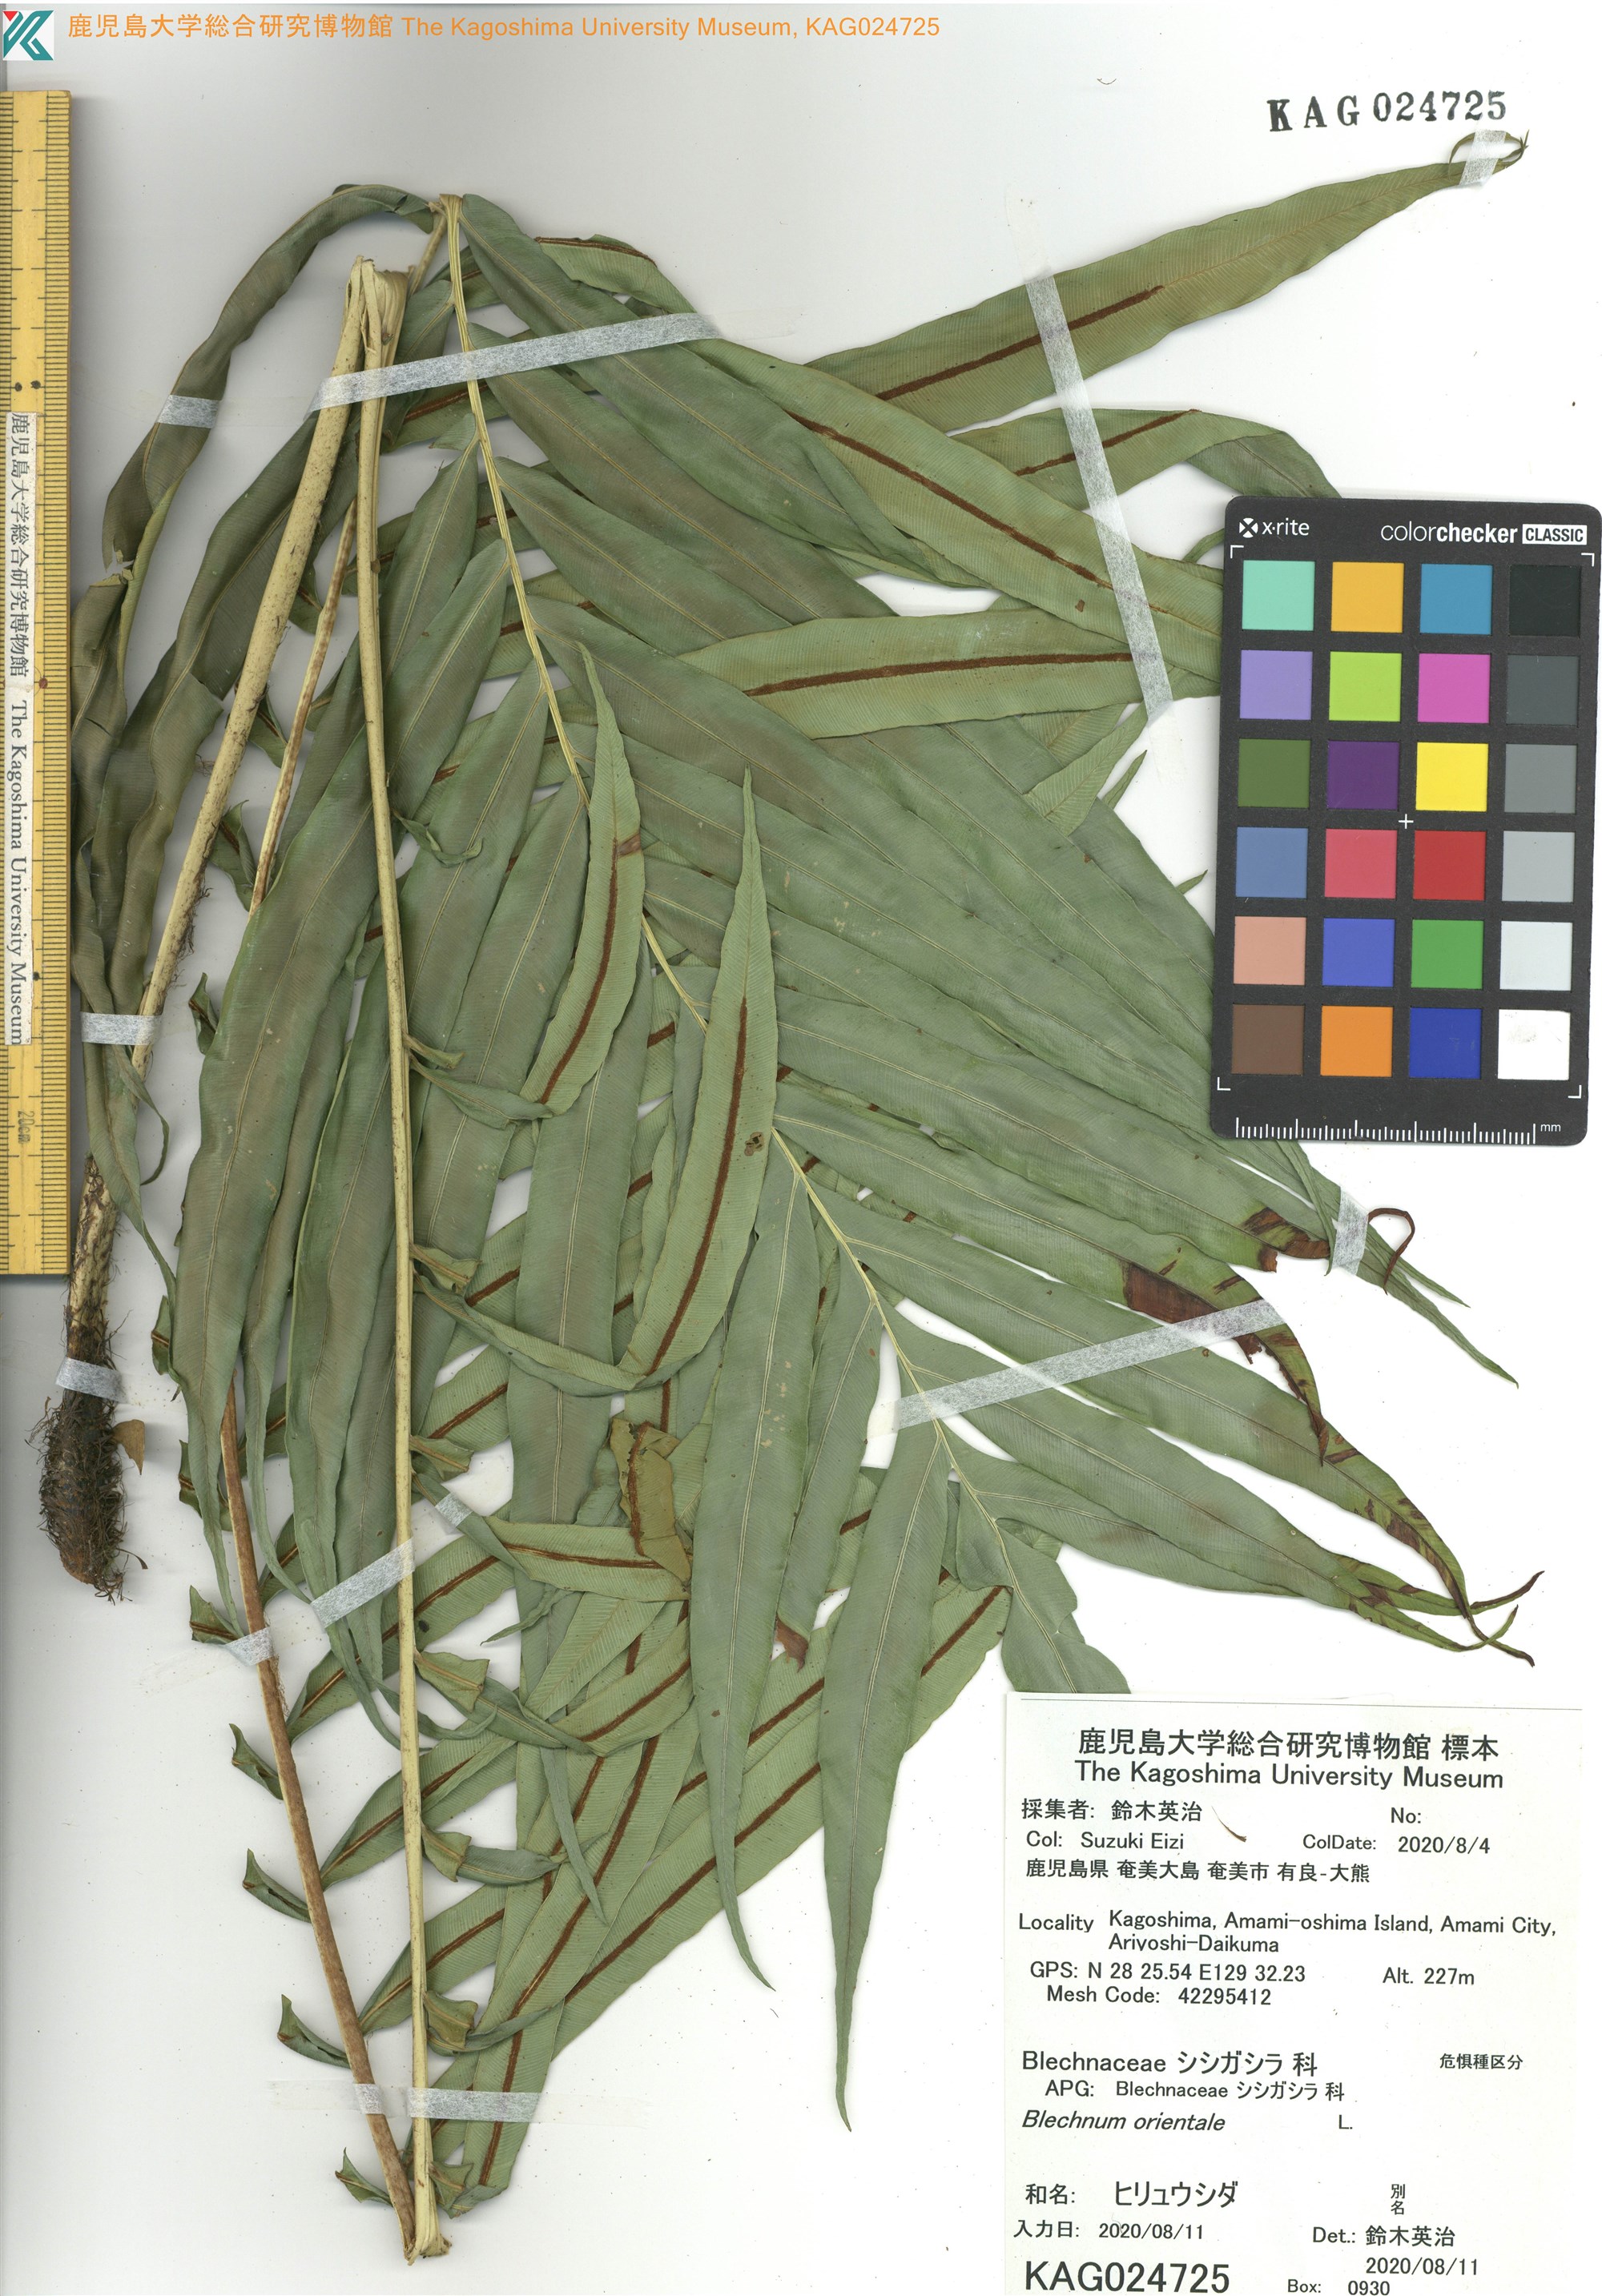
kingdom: Plantae
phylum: Tracheophyta
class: Polypodiopsida
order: Polypodiales
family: Blechnaceae
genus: Blechnopsis
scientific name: Blechnopsis orientalis
